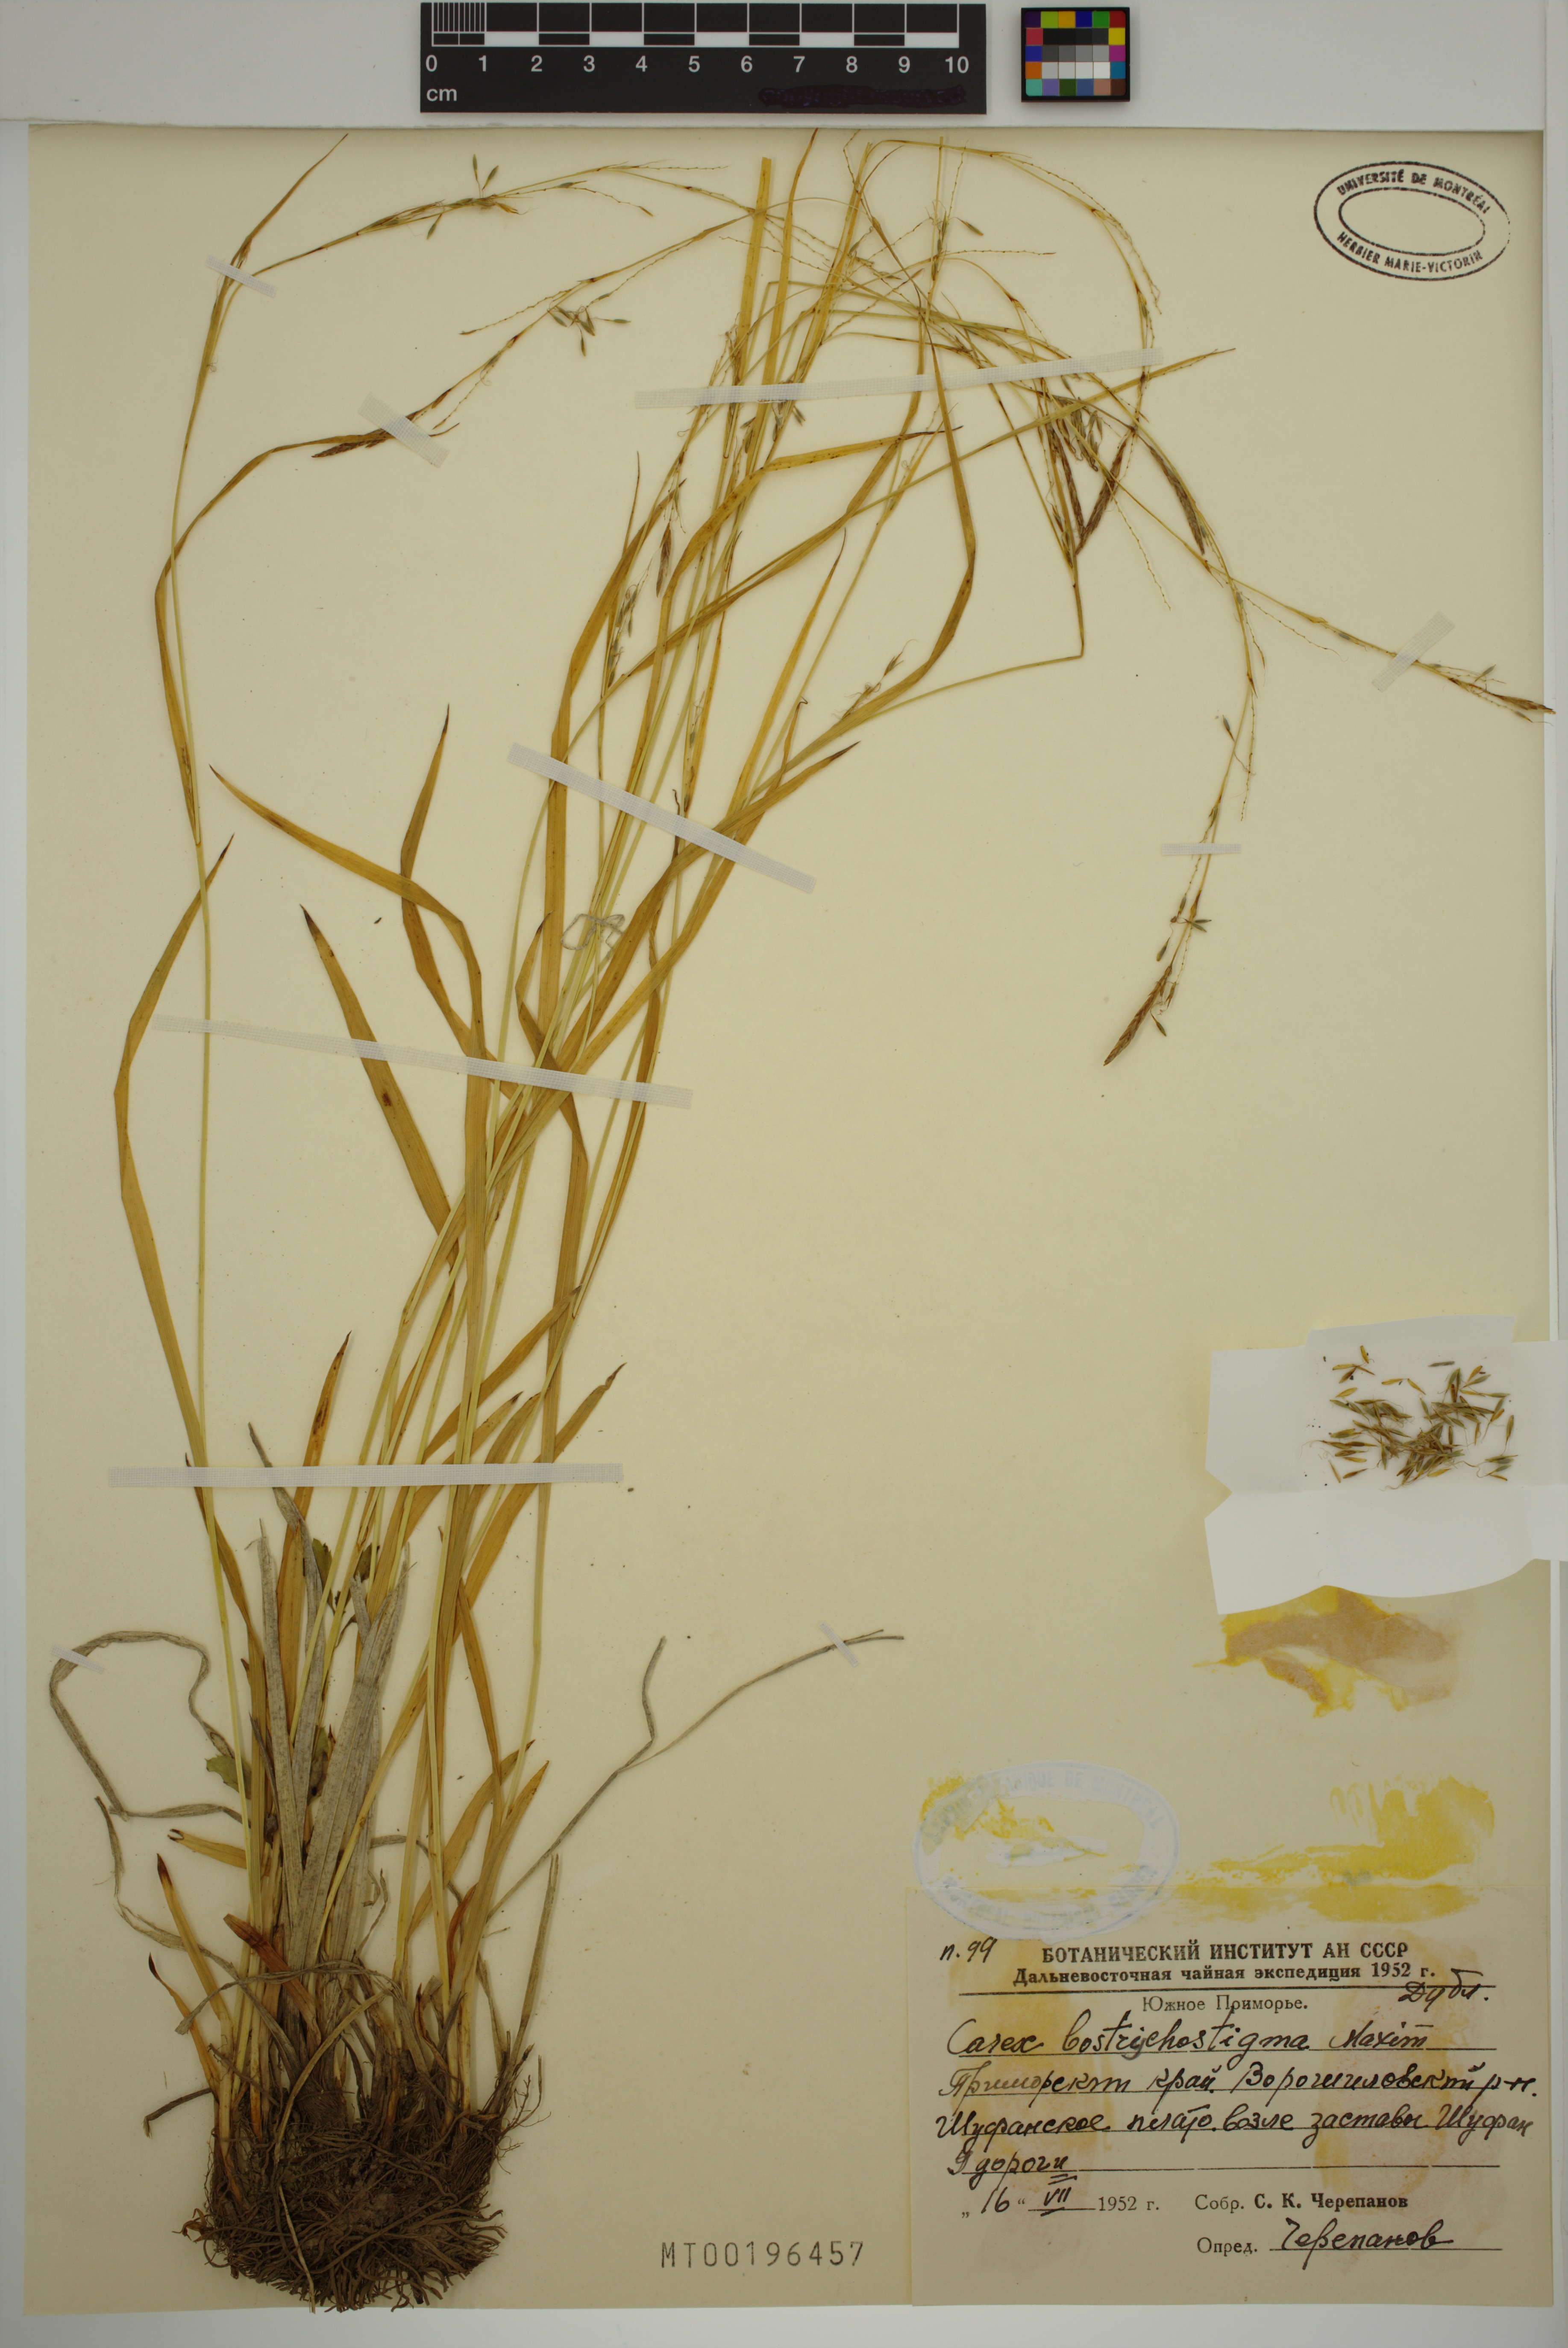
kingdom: Plantae
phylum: Tracheophyta
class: Liliopsida
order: Poales
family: Cyperaceae
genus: Carex
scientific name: Carex bostrychostigma
